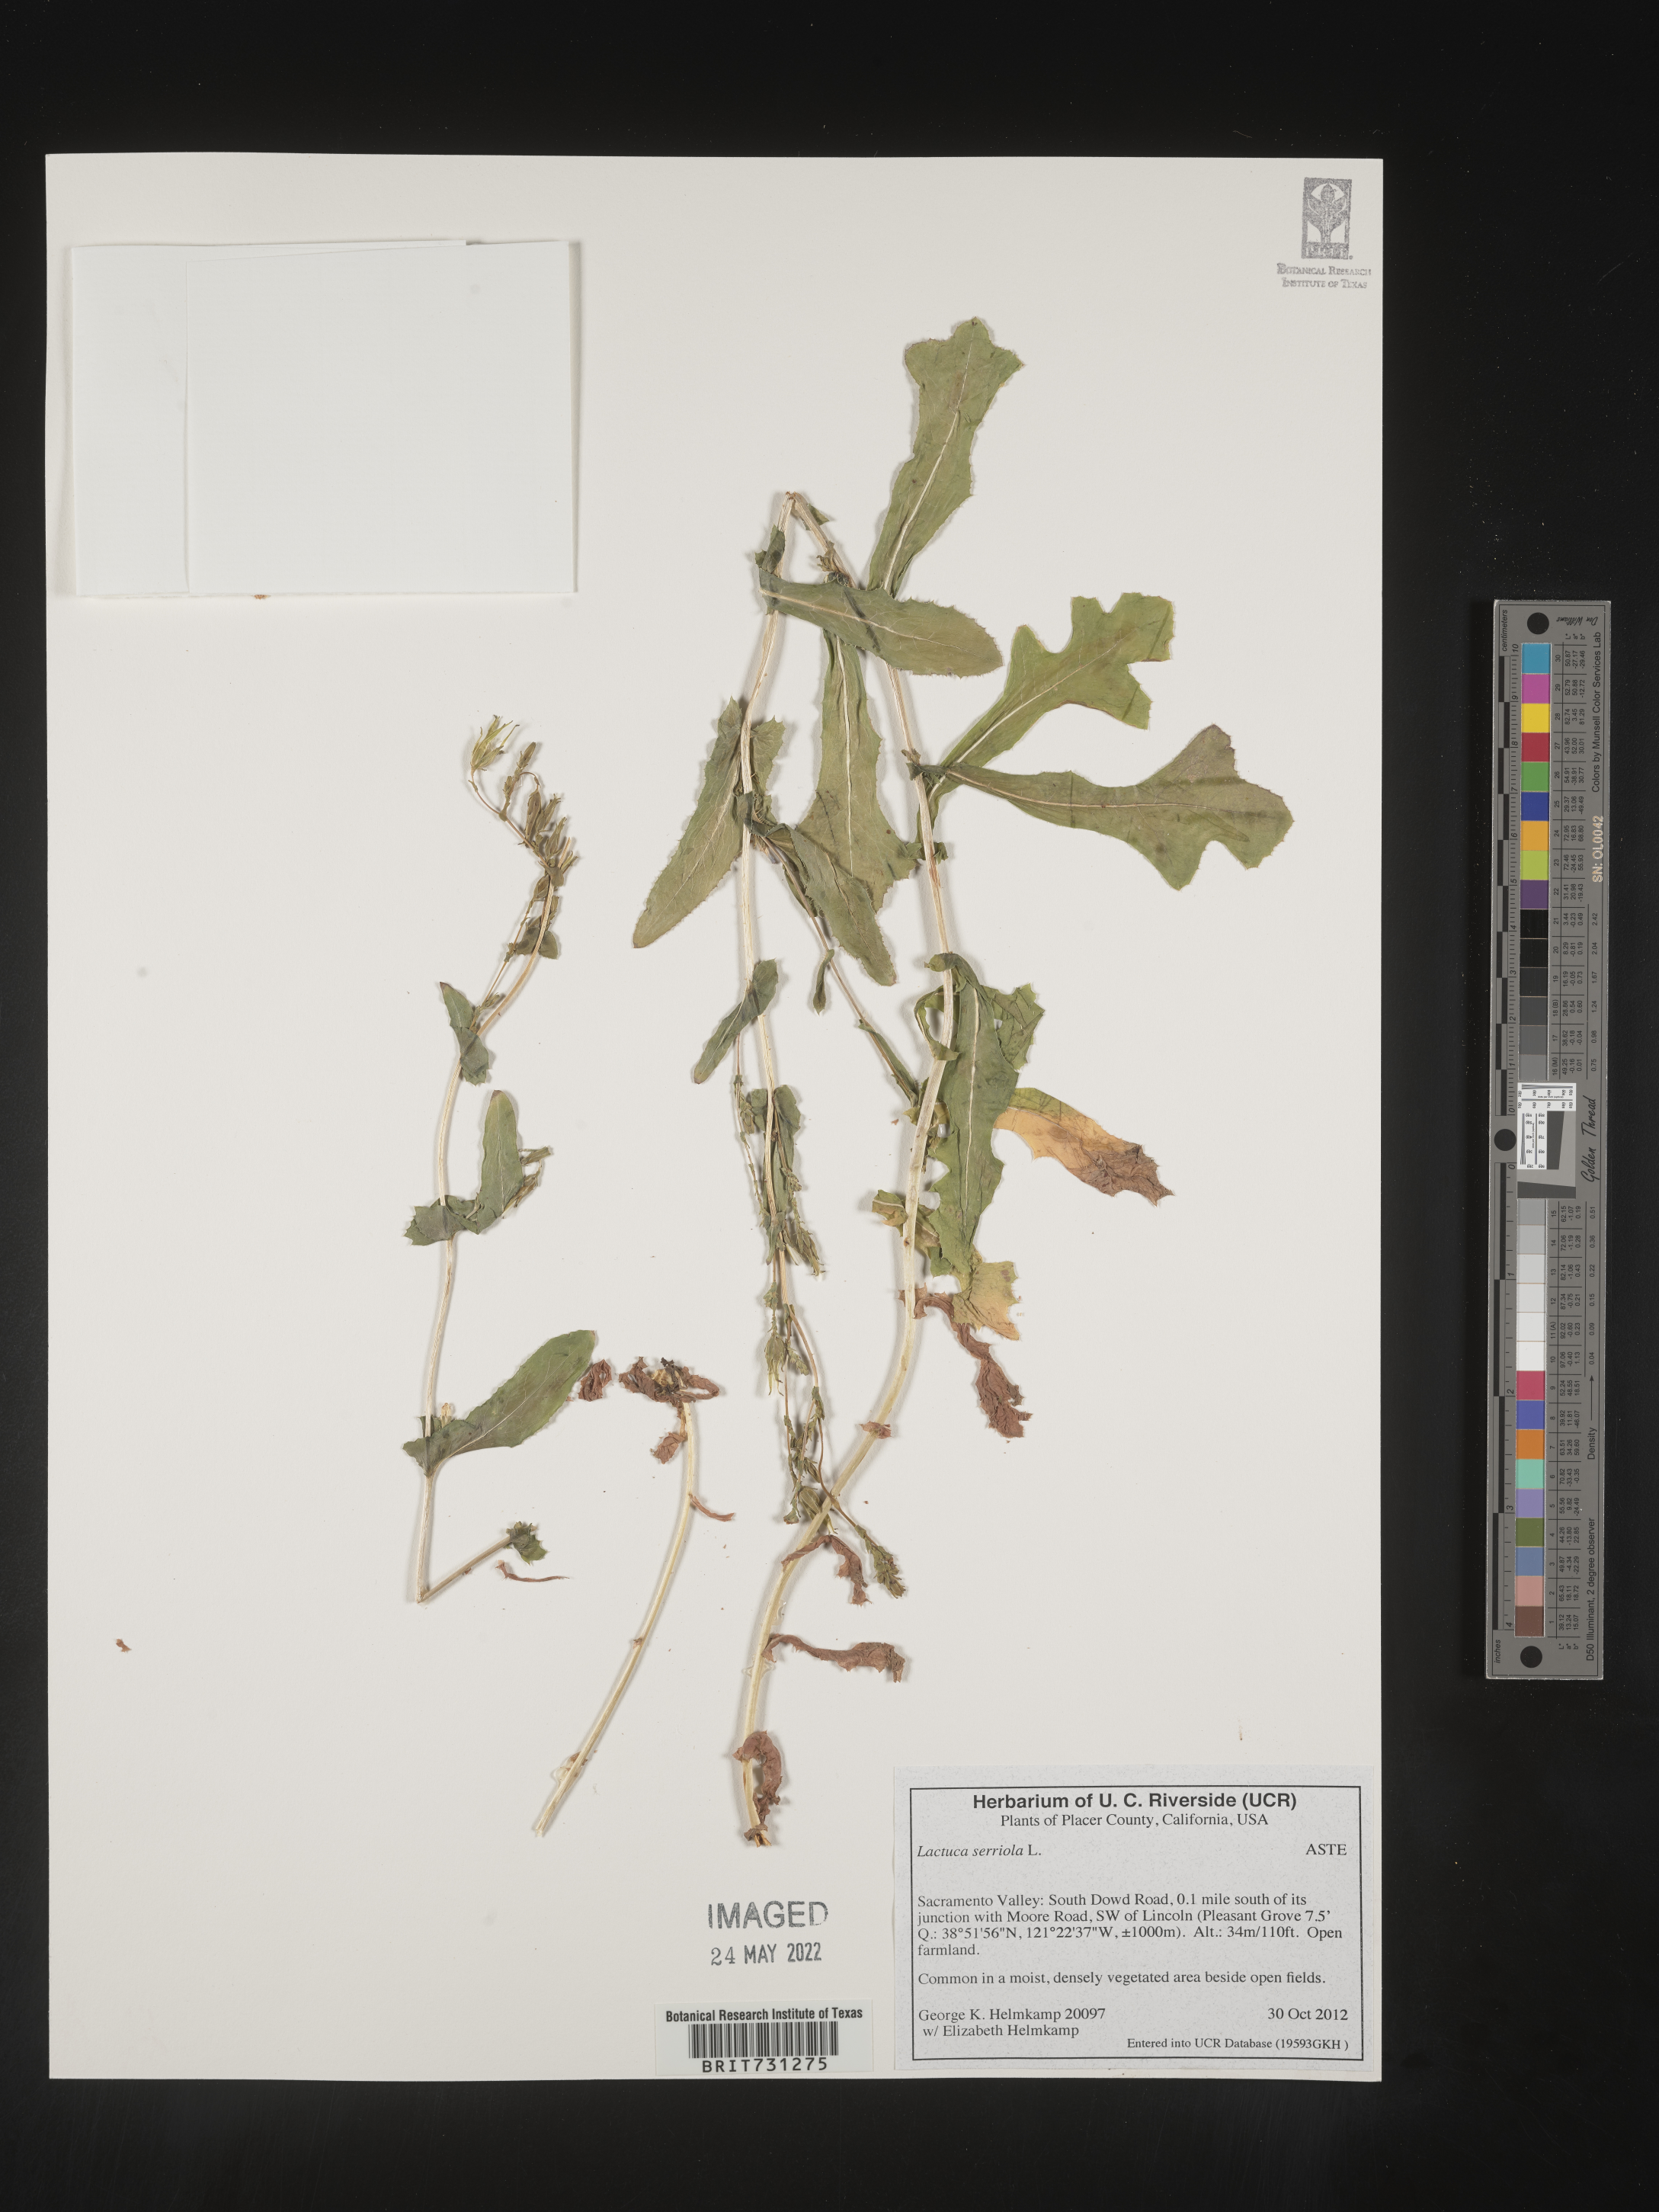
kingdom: Plantae
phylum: Tracheophyta
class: Magnoliopsida
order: Asterales
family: Asteraceae
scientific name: Asteraceae
